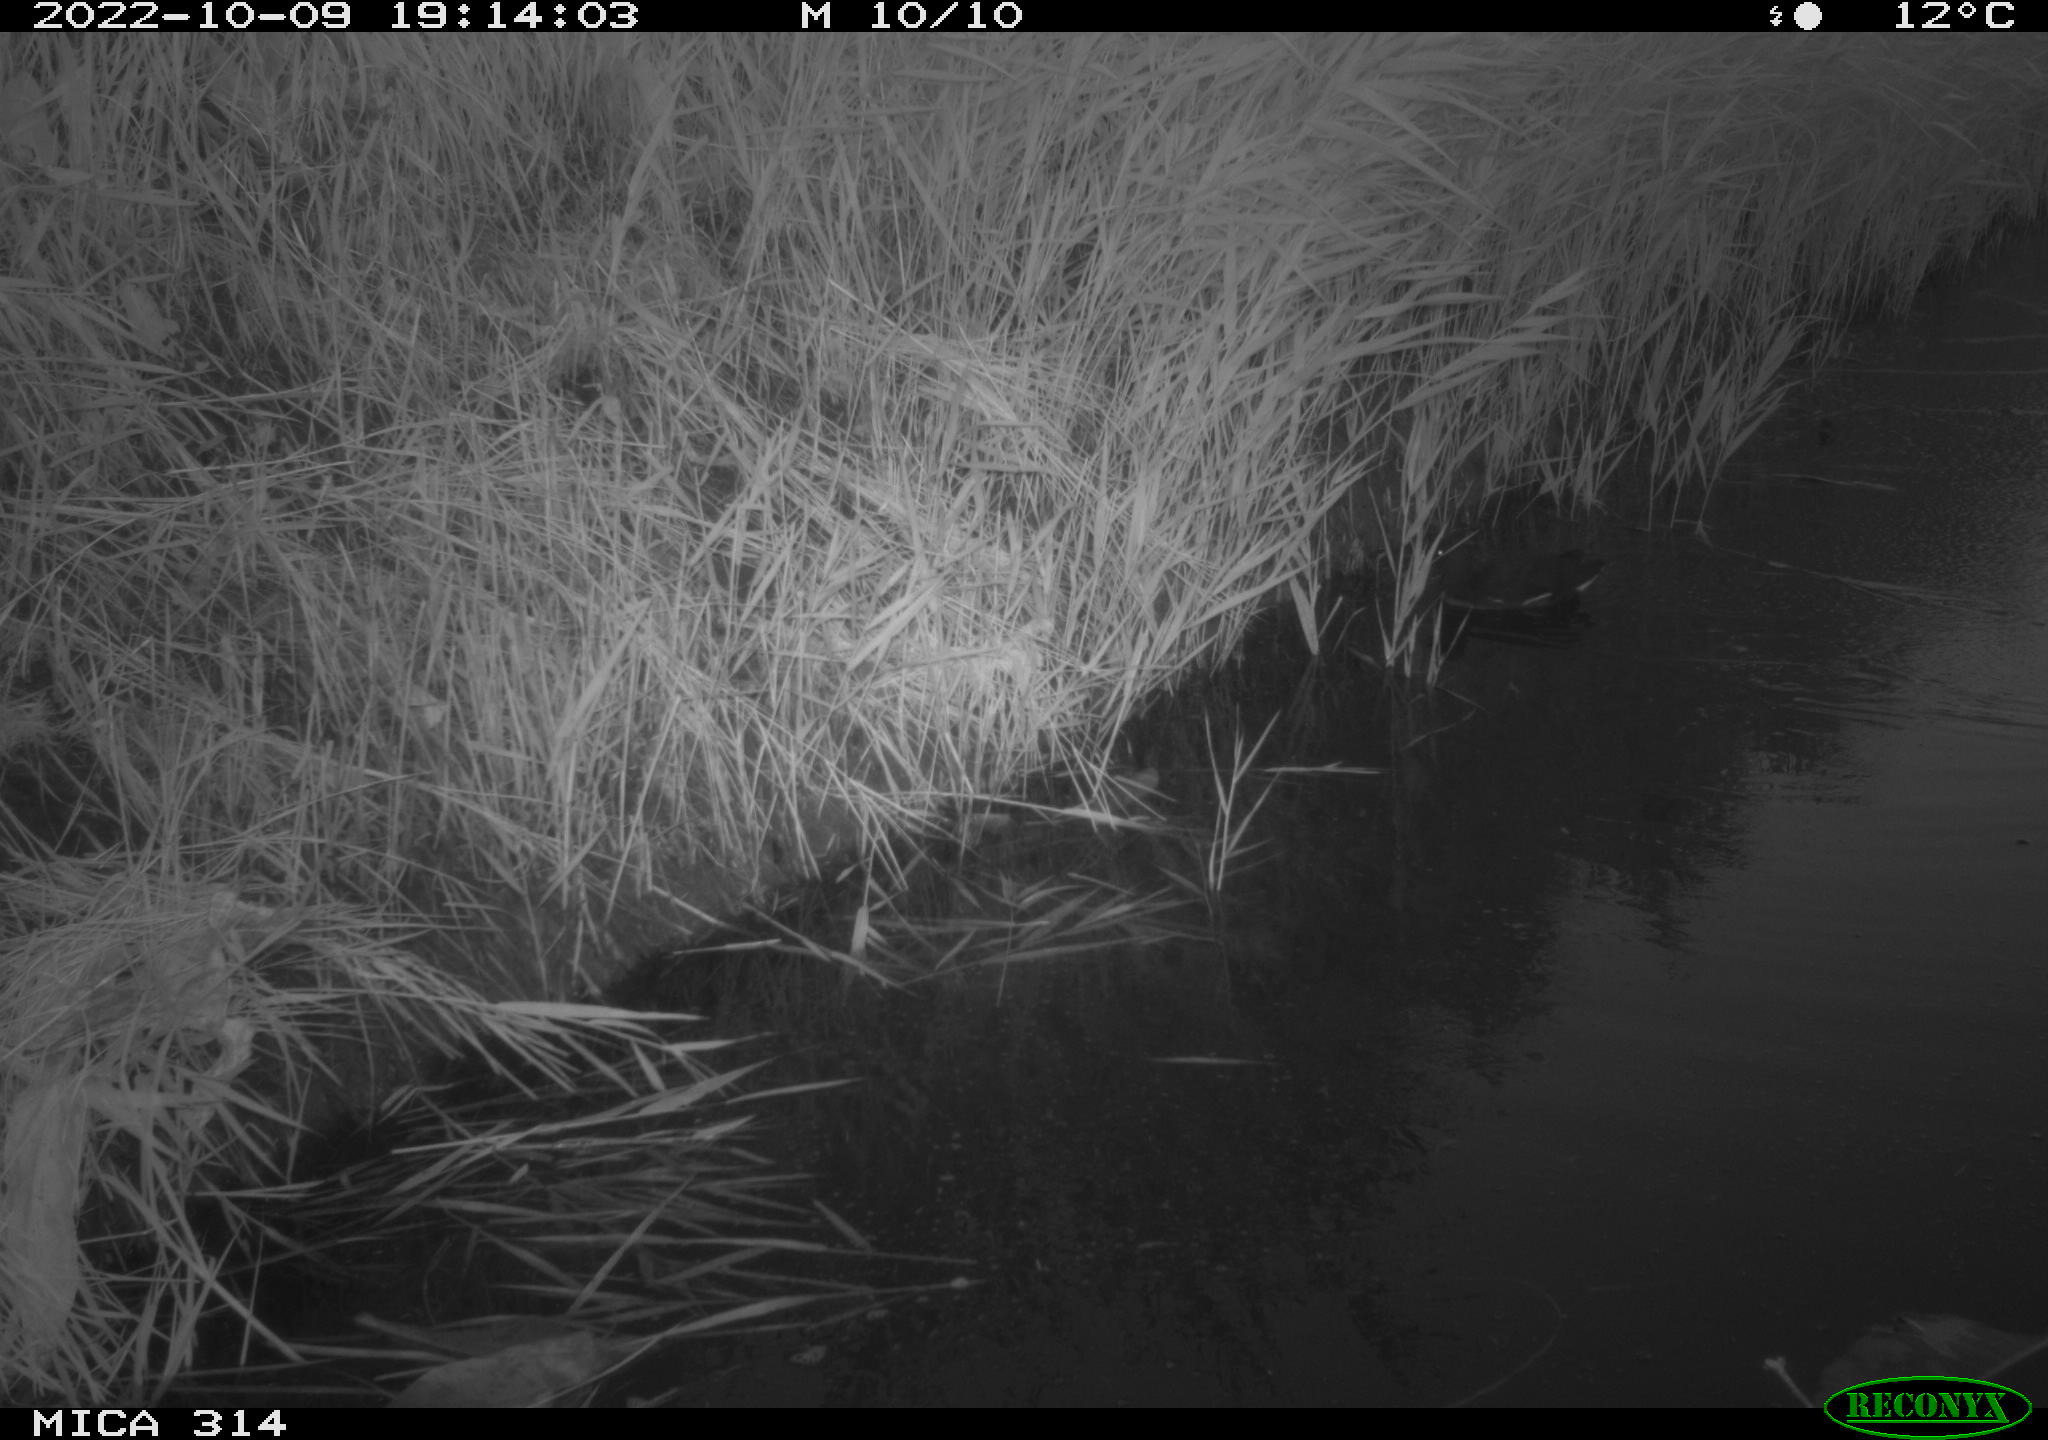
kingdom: Animalia
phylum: Chordata
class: Aves
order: Gruiformes
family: Rallidae
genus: Gallinula
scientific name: Gallinula chloropus
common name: Common moorhen
